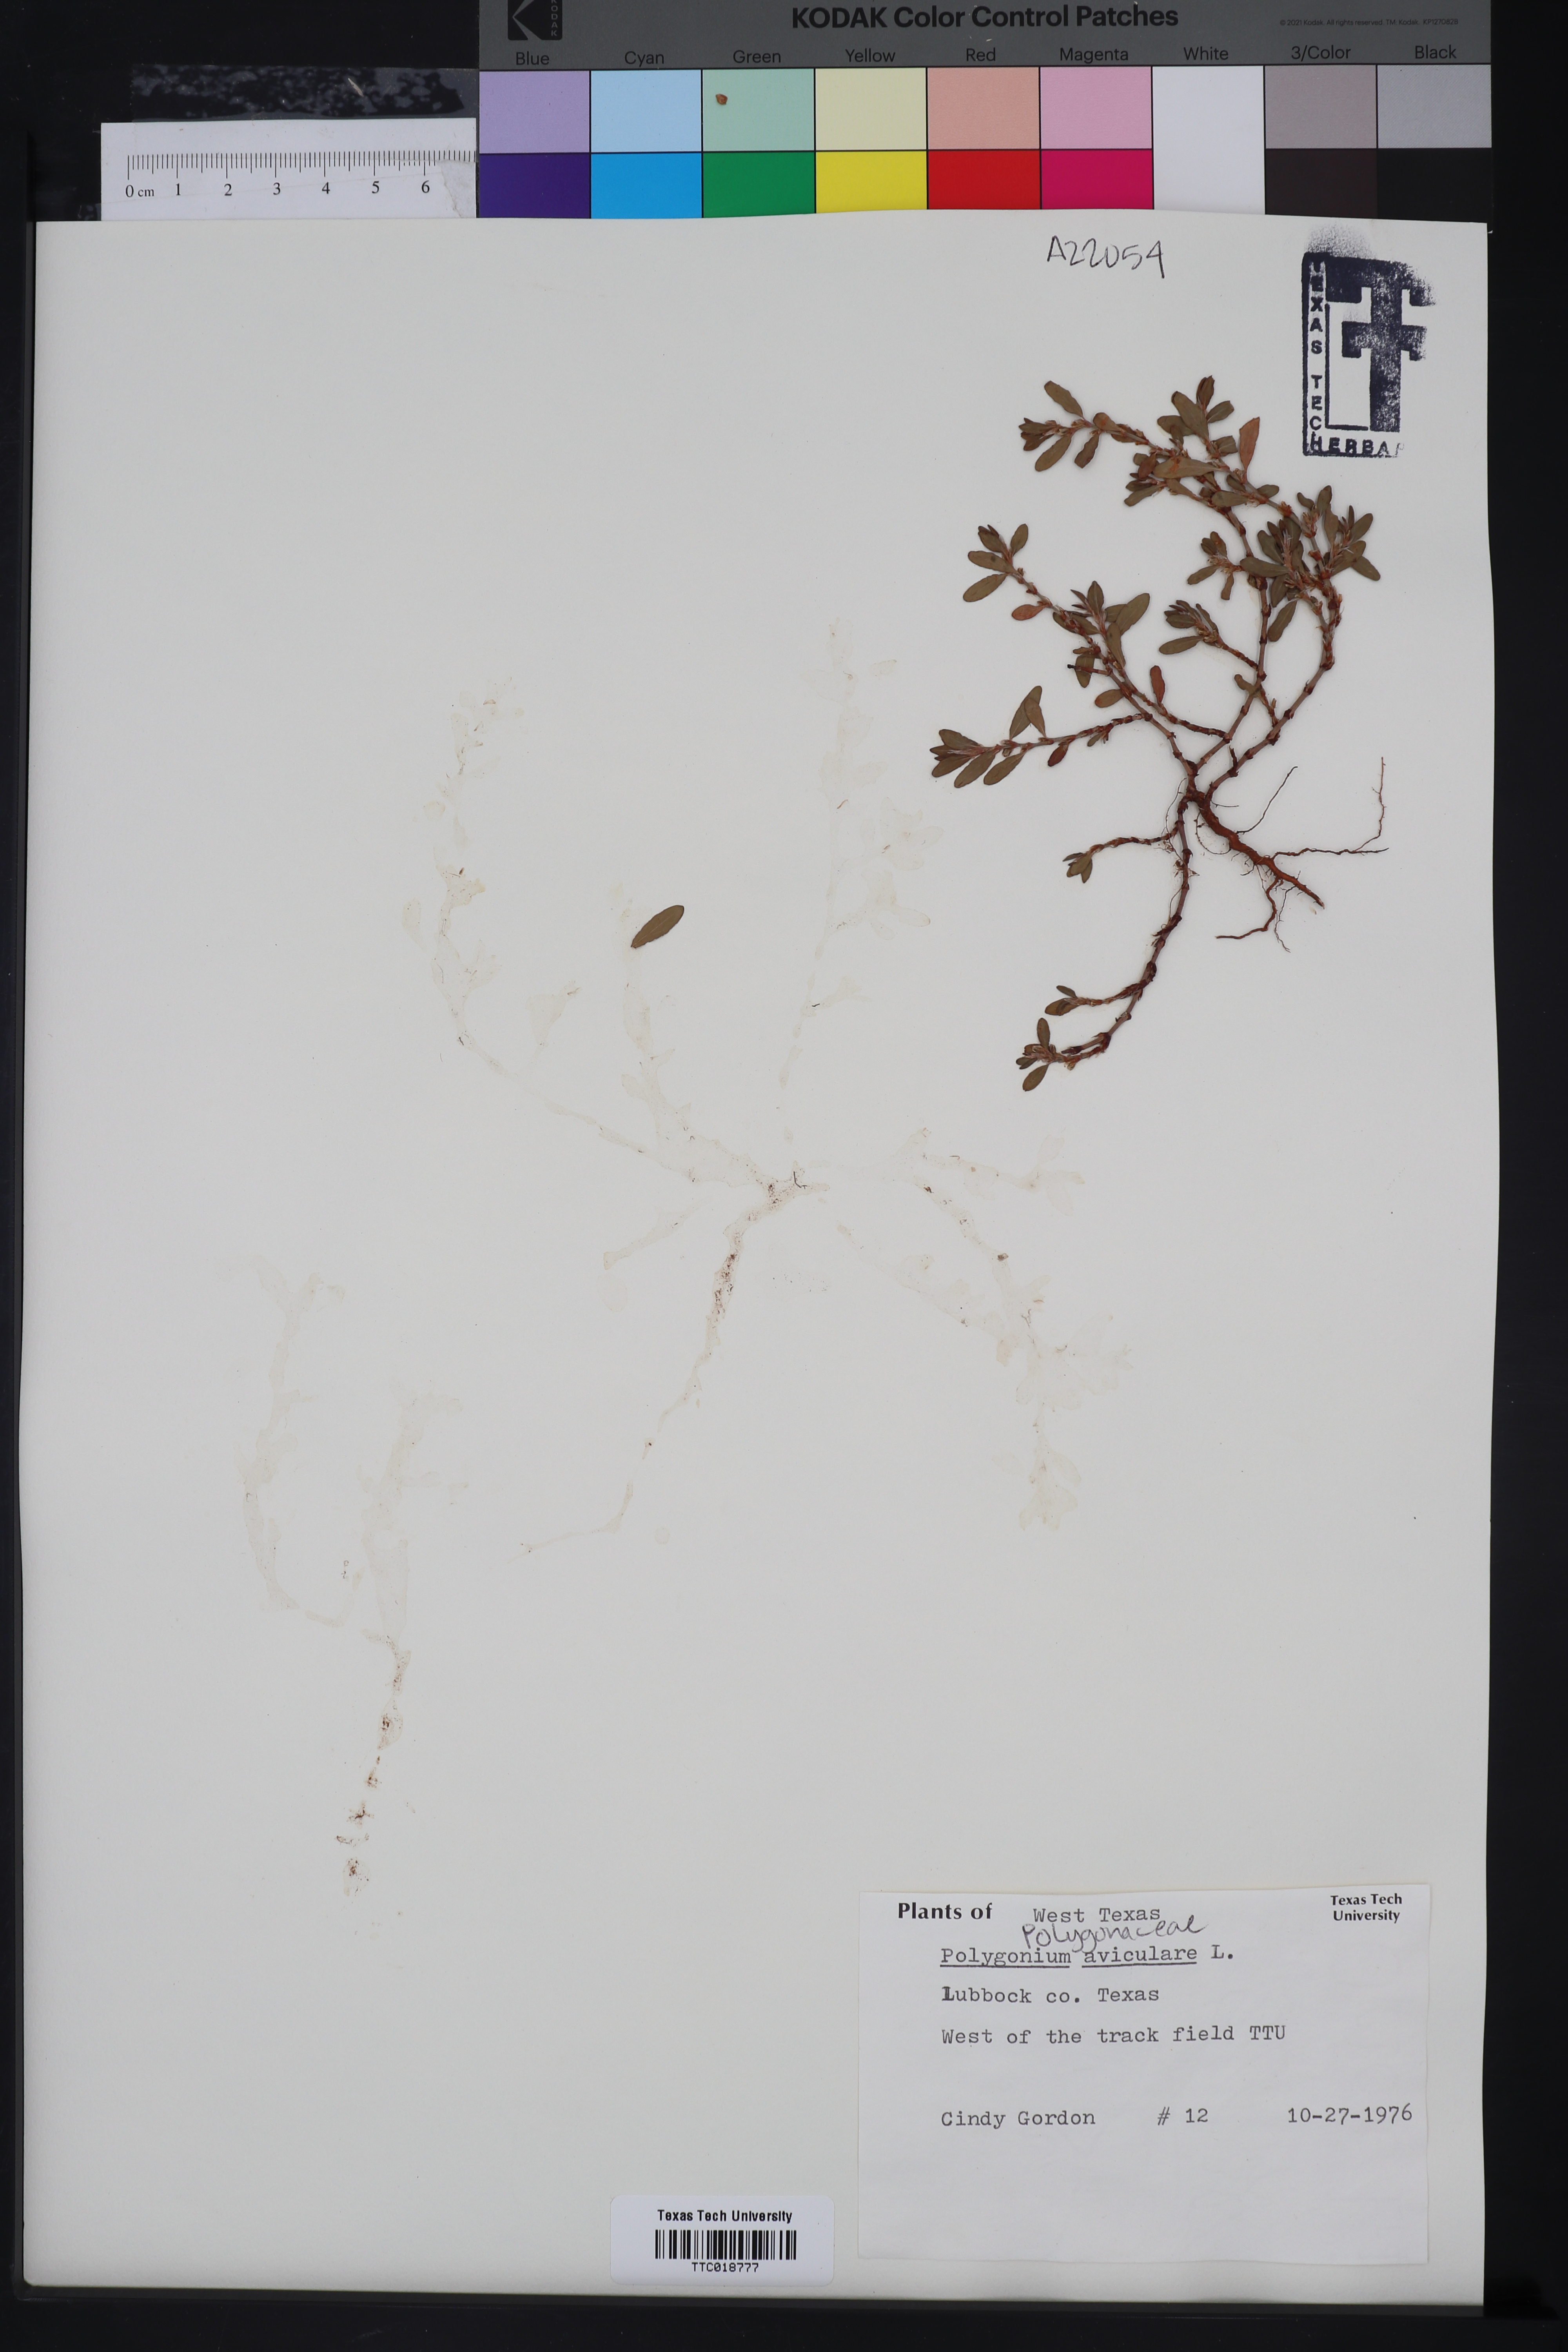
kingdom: Plantae
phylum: Tracheophyta
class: Magnoliopsida
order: Caryophyllales
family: Polygonaceae
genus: Polygonum
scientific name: Polygonum aviculare
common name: Prostrate knotweed
